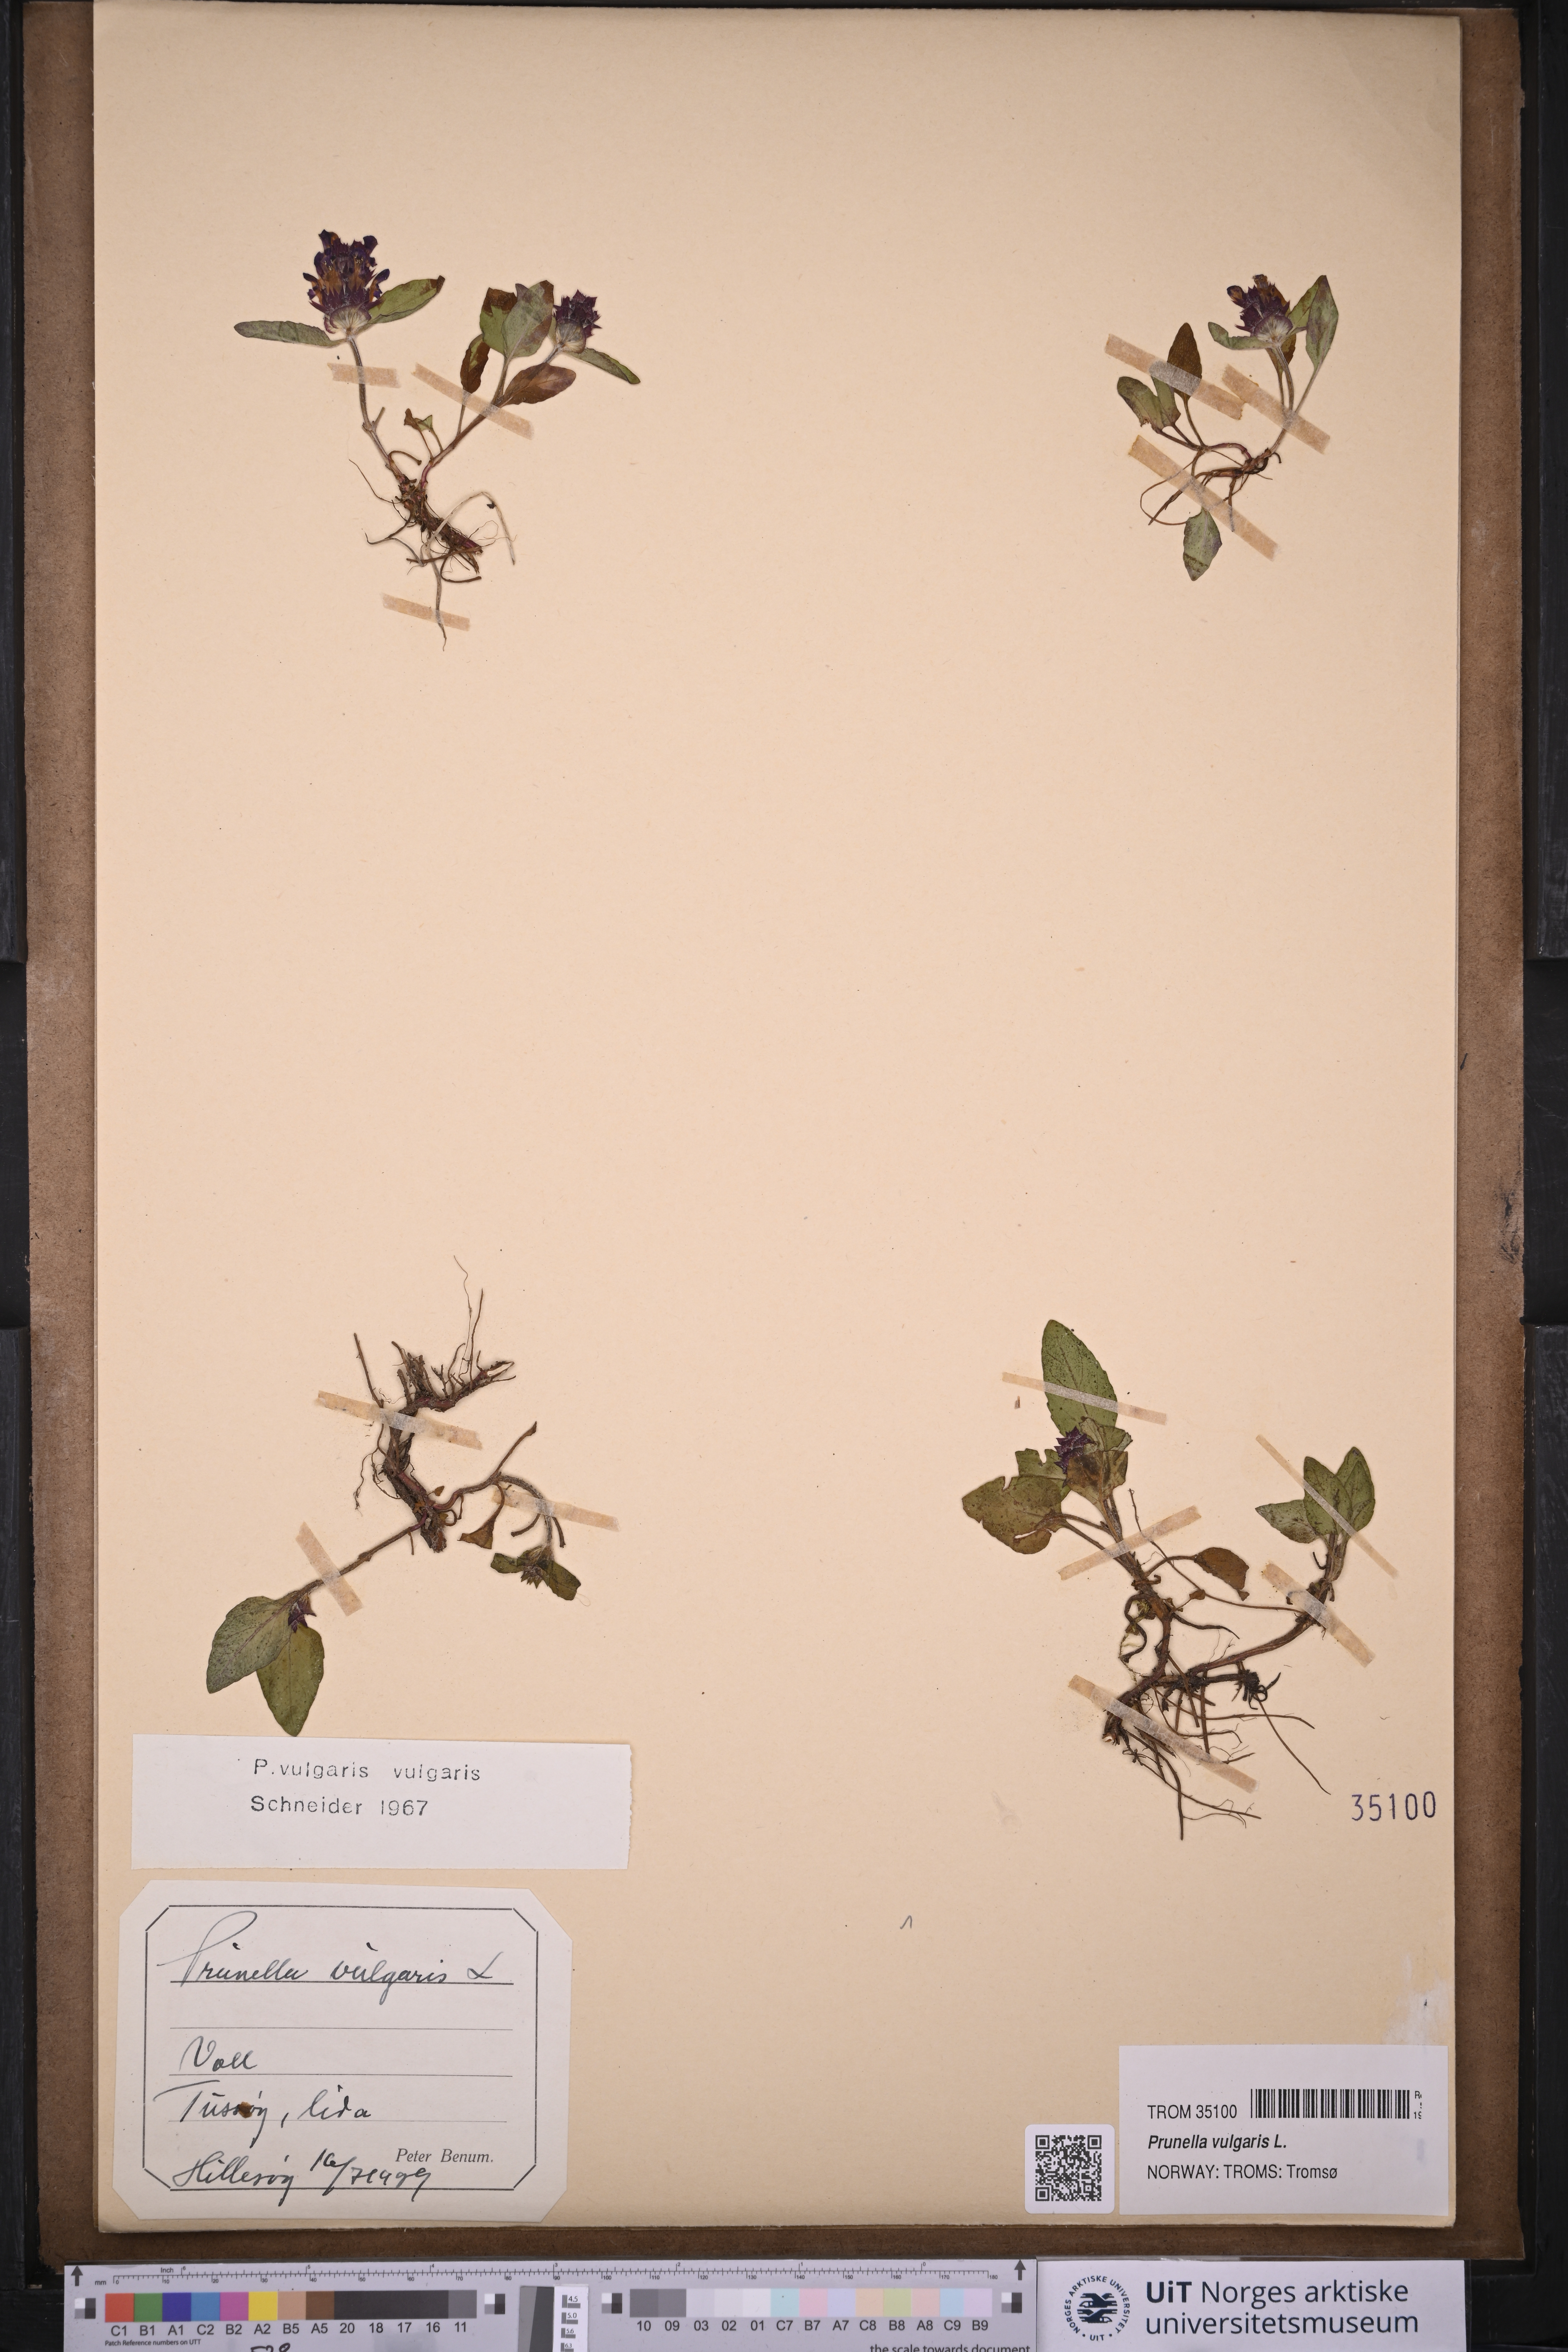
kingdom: Plantae
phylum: Tracheophyta
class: Magnoliopsida
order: Lamiales
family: Lamiaceae
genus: Prunella
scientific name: Prunella vulgaris
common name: Heal-all
